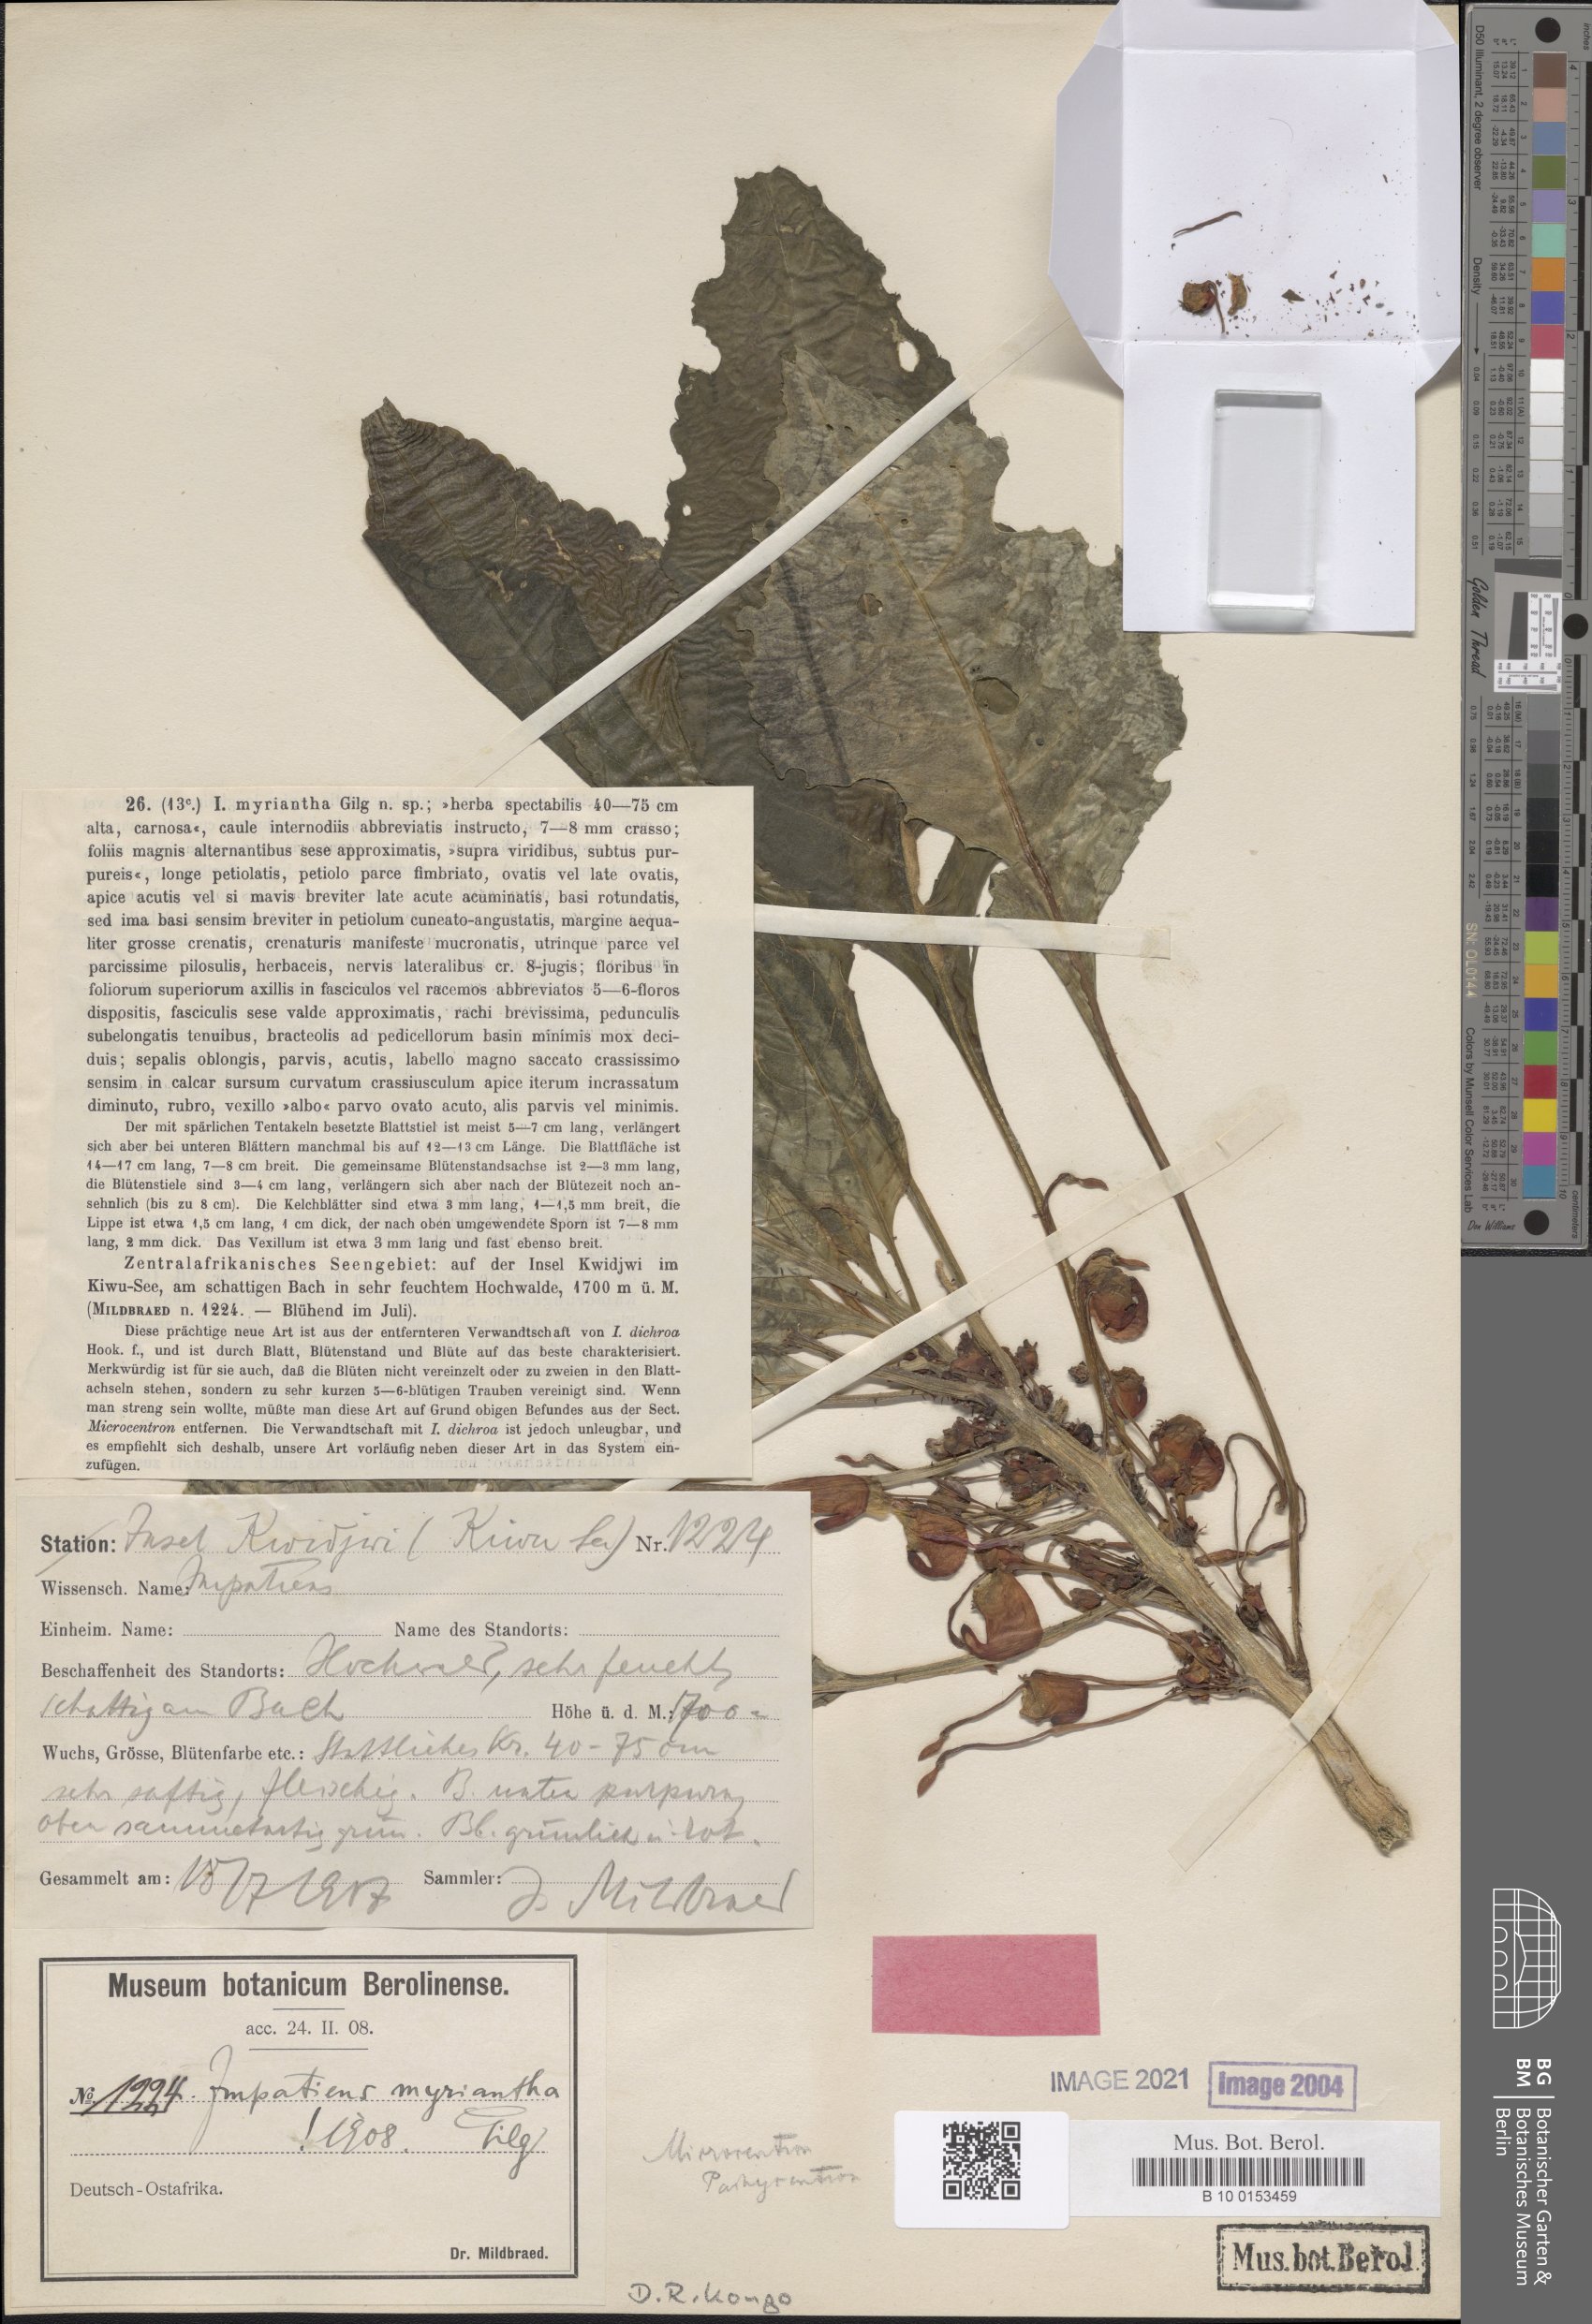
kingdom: Plantae
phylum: Tracheophyta
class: Magnoliopsida
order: Ericales
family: Balsaminaceae
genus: Impatiens
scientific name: Impatiens niamniamensis
